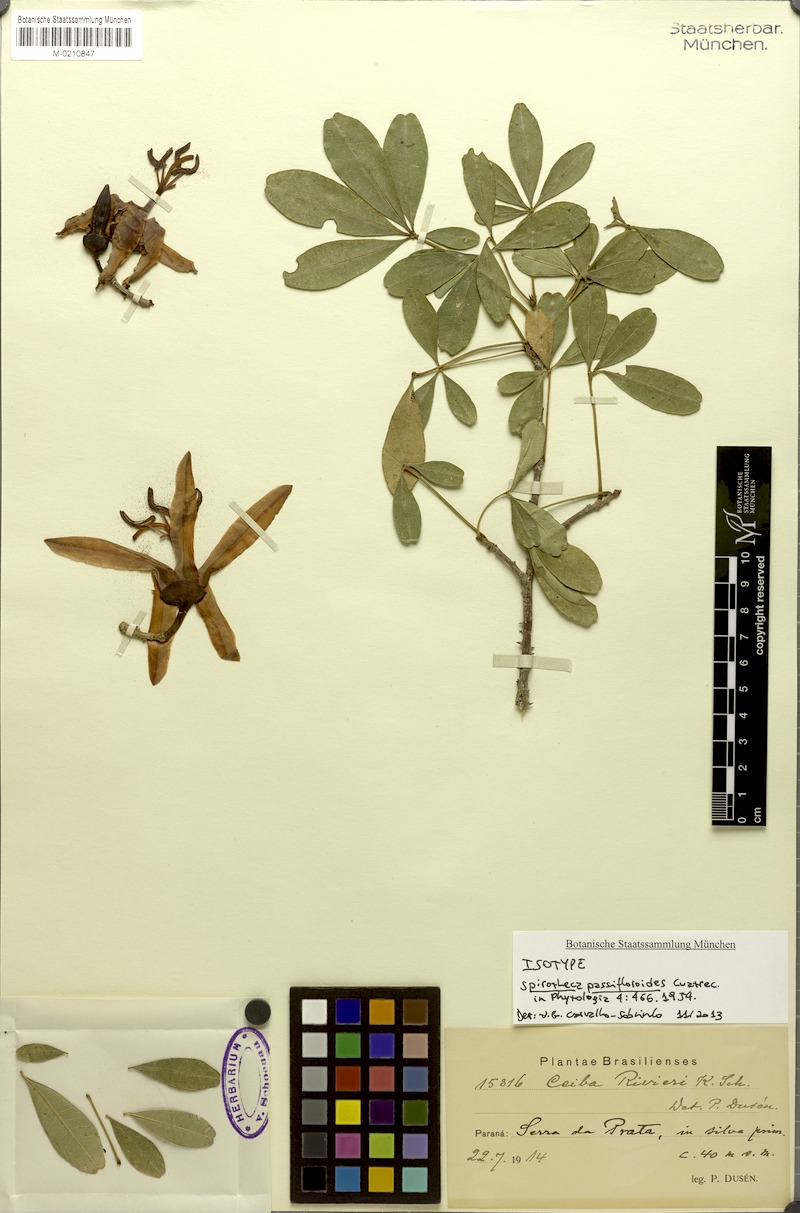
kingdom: Plantae
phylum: Tracheophyta
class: Magnoliopsida
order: Malvales
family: Malvaceae
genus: Spirotheca
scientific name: Spirotheca rivieri
